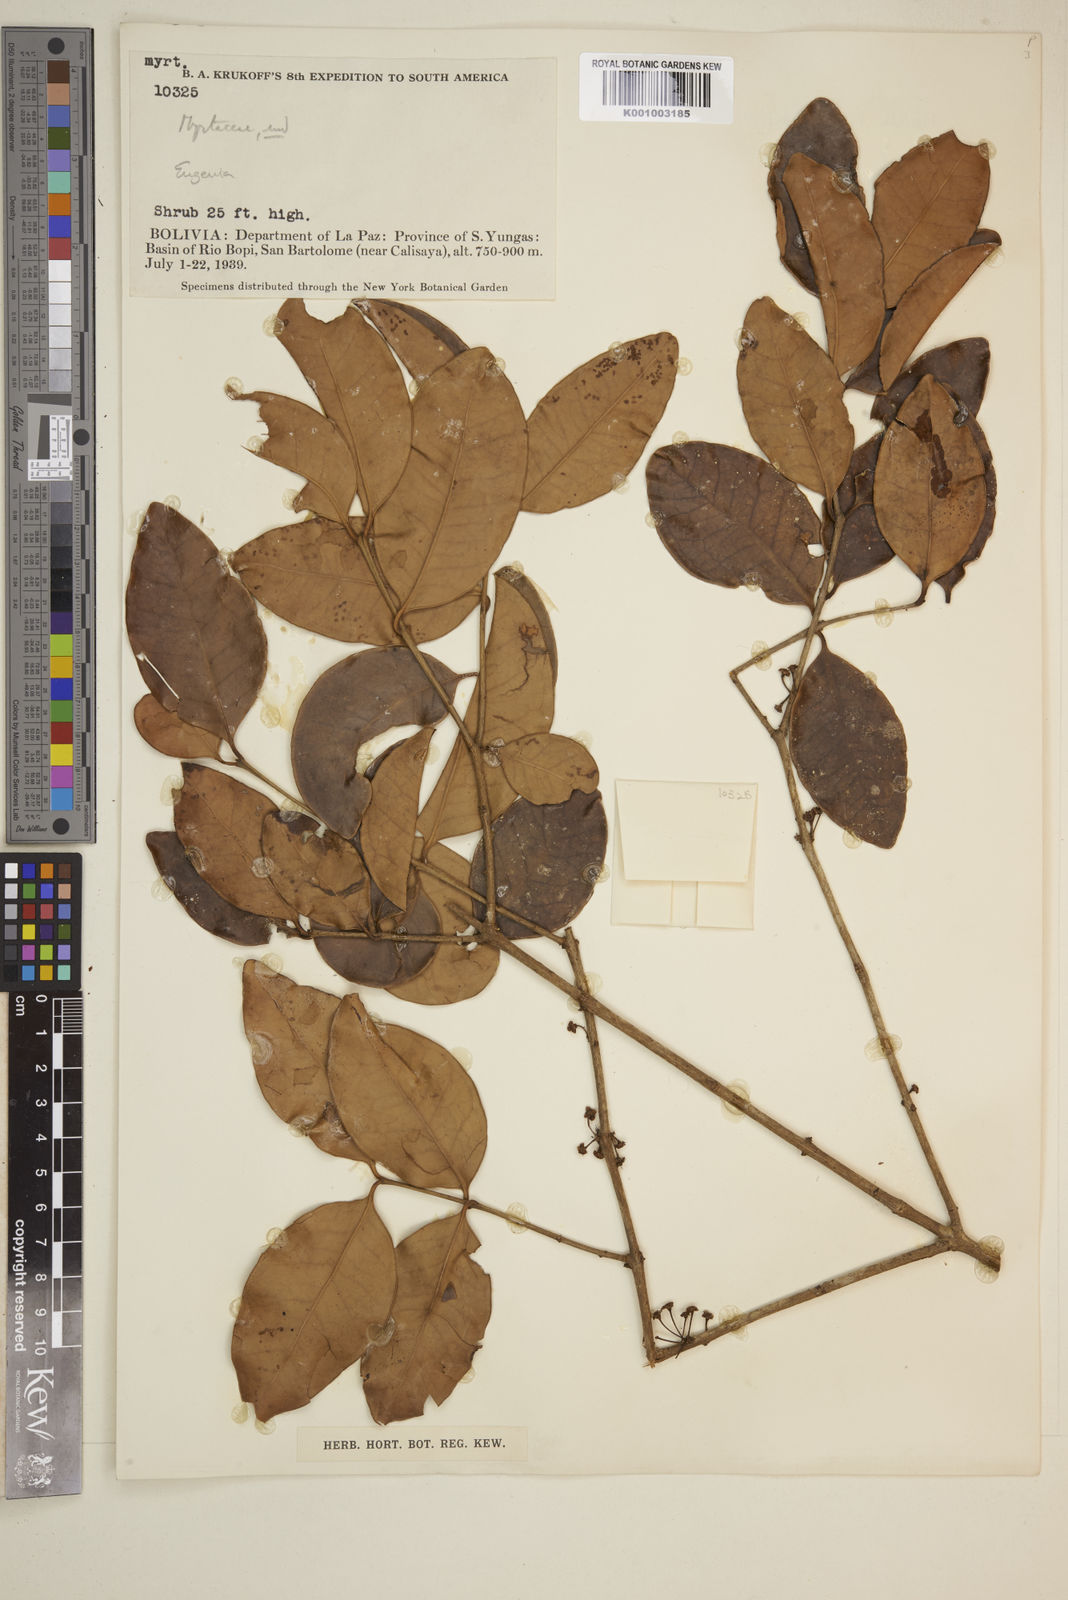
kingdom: Plantae
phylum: Tracheophyta
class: Magnoliopsida
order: Myrtales
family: Myrtaceae
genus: Eugenia
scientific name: Eugenia
